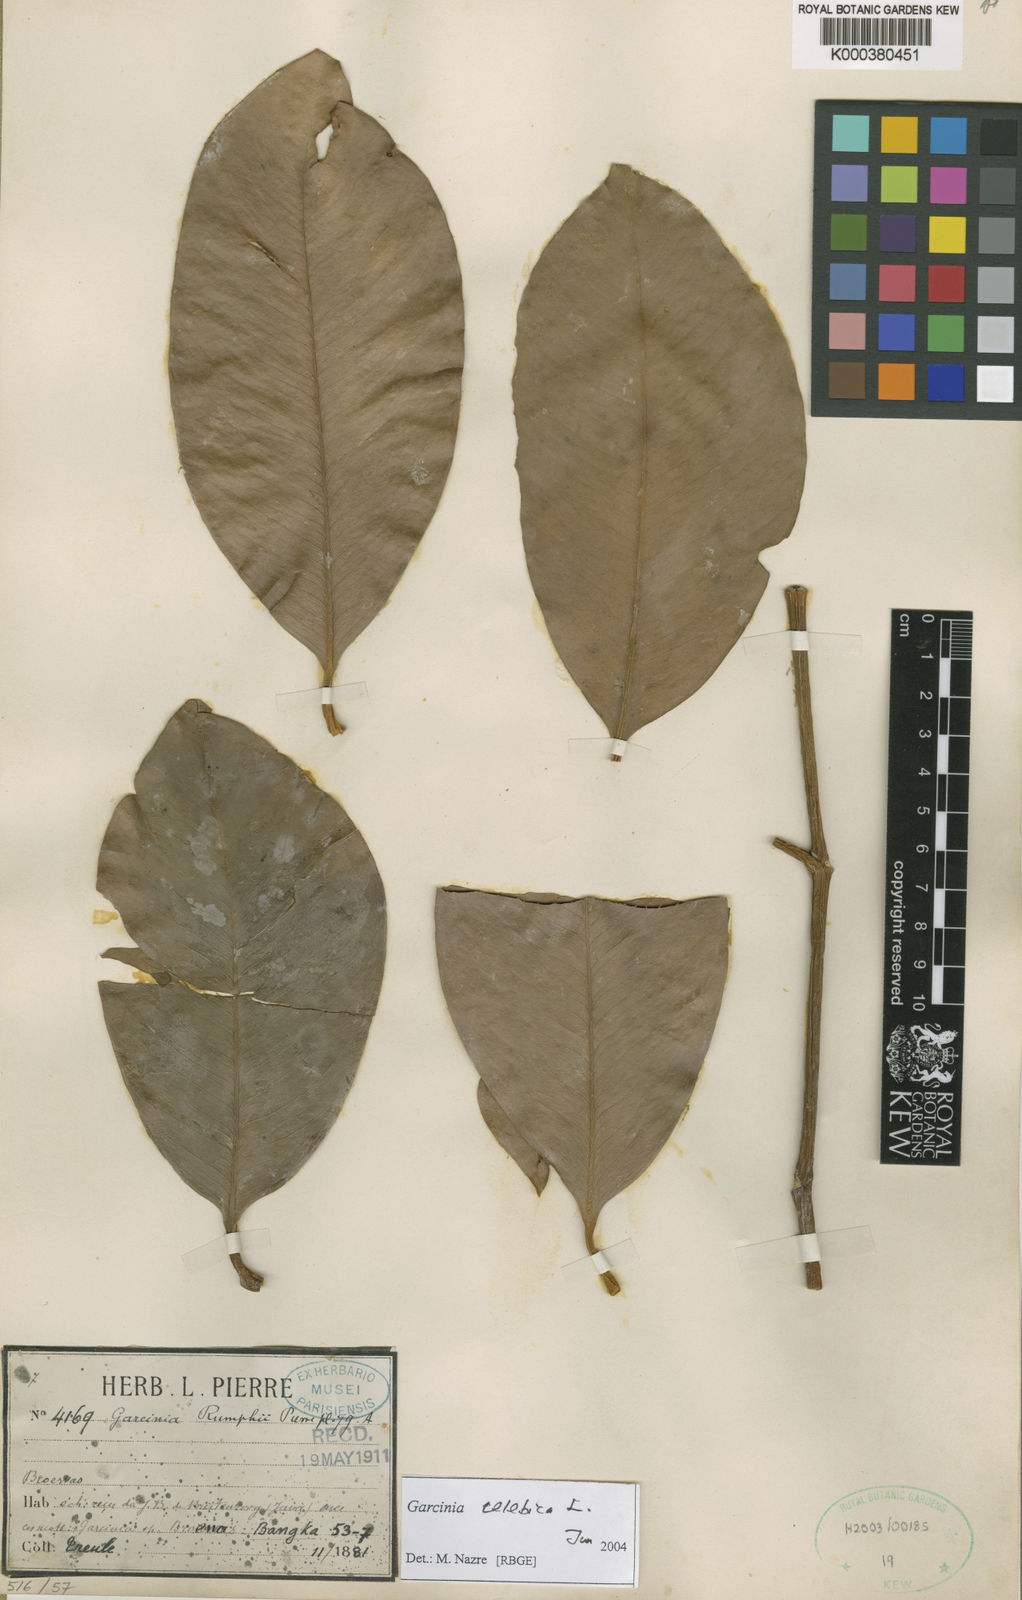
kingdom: Plantae
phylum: Tracheophyta
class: Magnoliopsida
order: Malpighiales
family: Clusiaceae
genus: Garcinia
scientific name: Garcinia celebica
